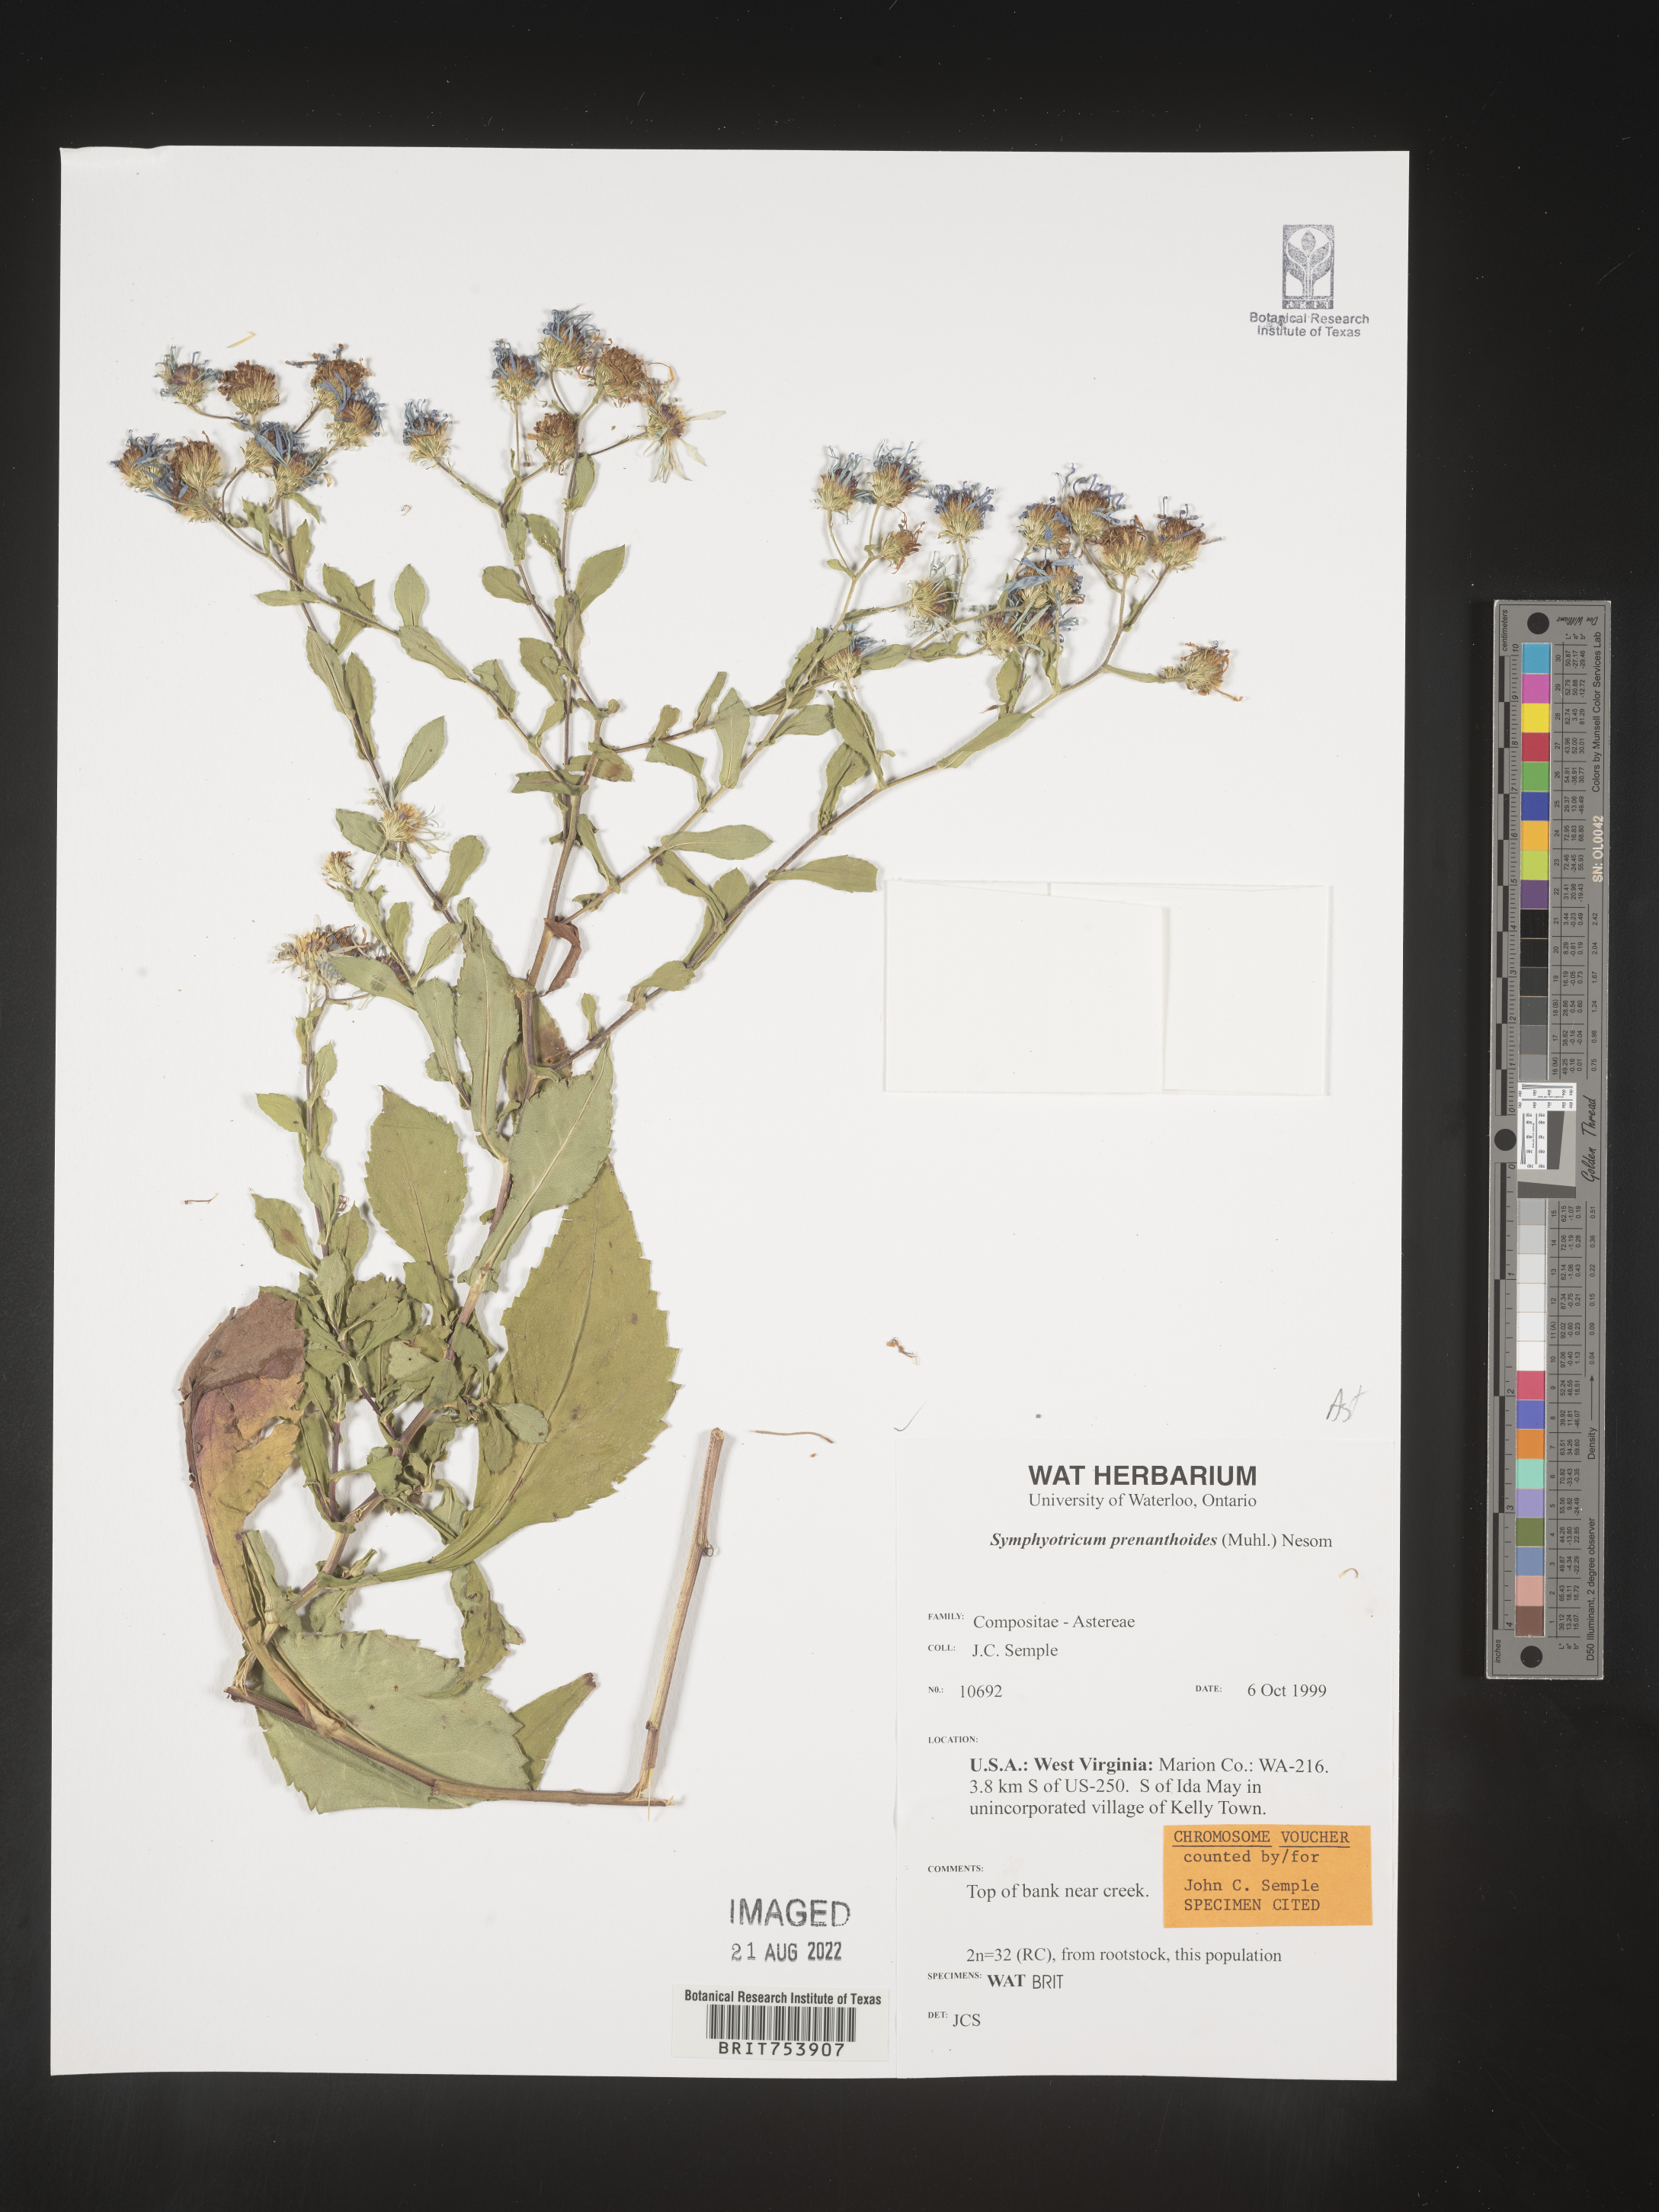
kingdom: Plantae
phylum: Tracheophyta
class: Magnoliopsida
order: Asterales
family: Asteraceae
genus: Symphyotrichum
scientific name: Symphyotrichum prenanthoides
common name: Crooked-stem aster
